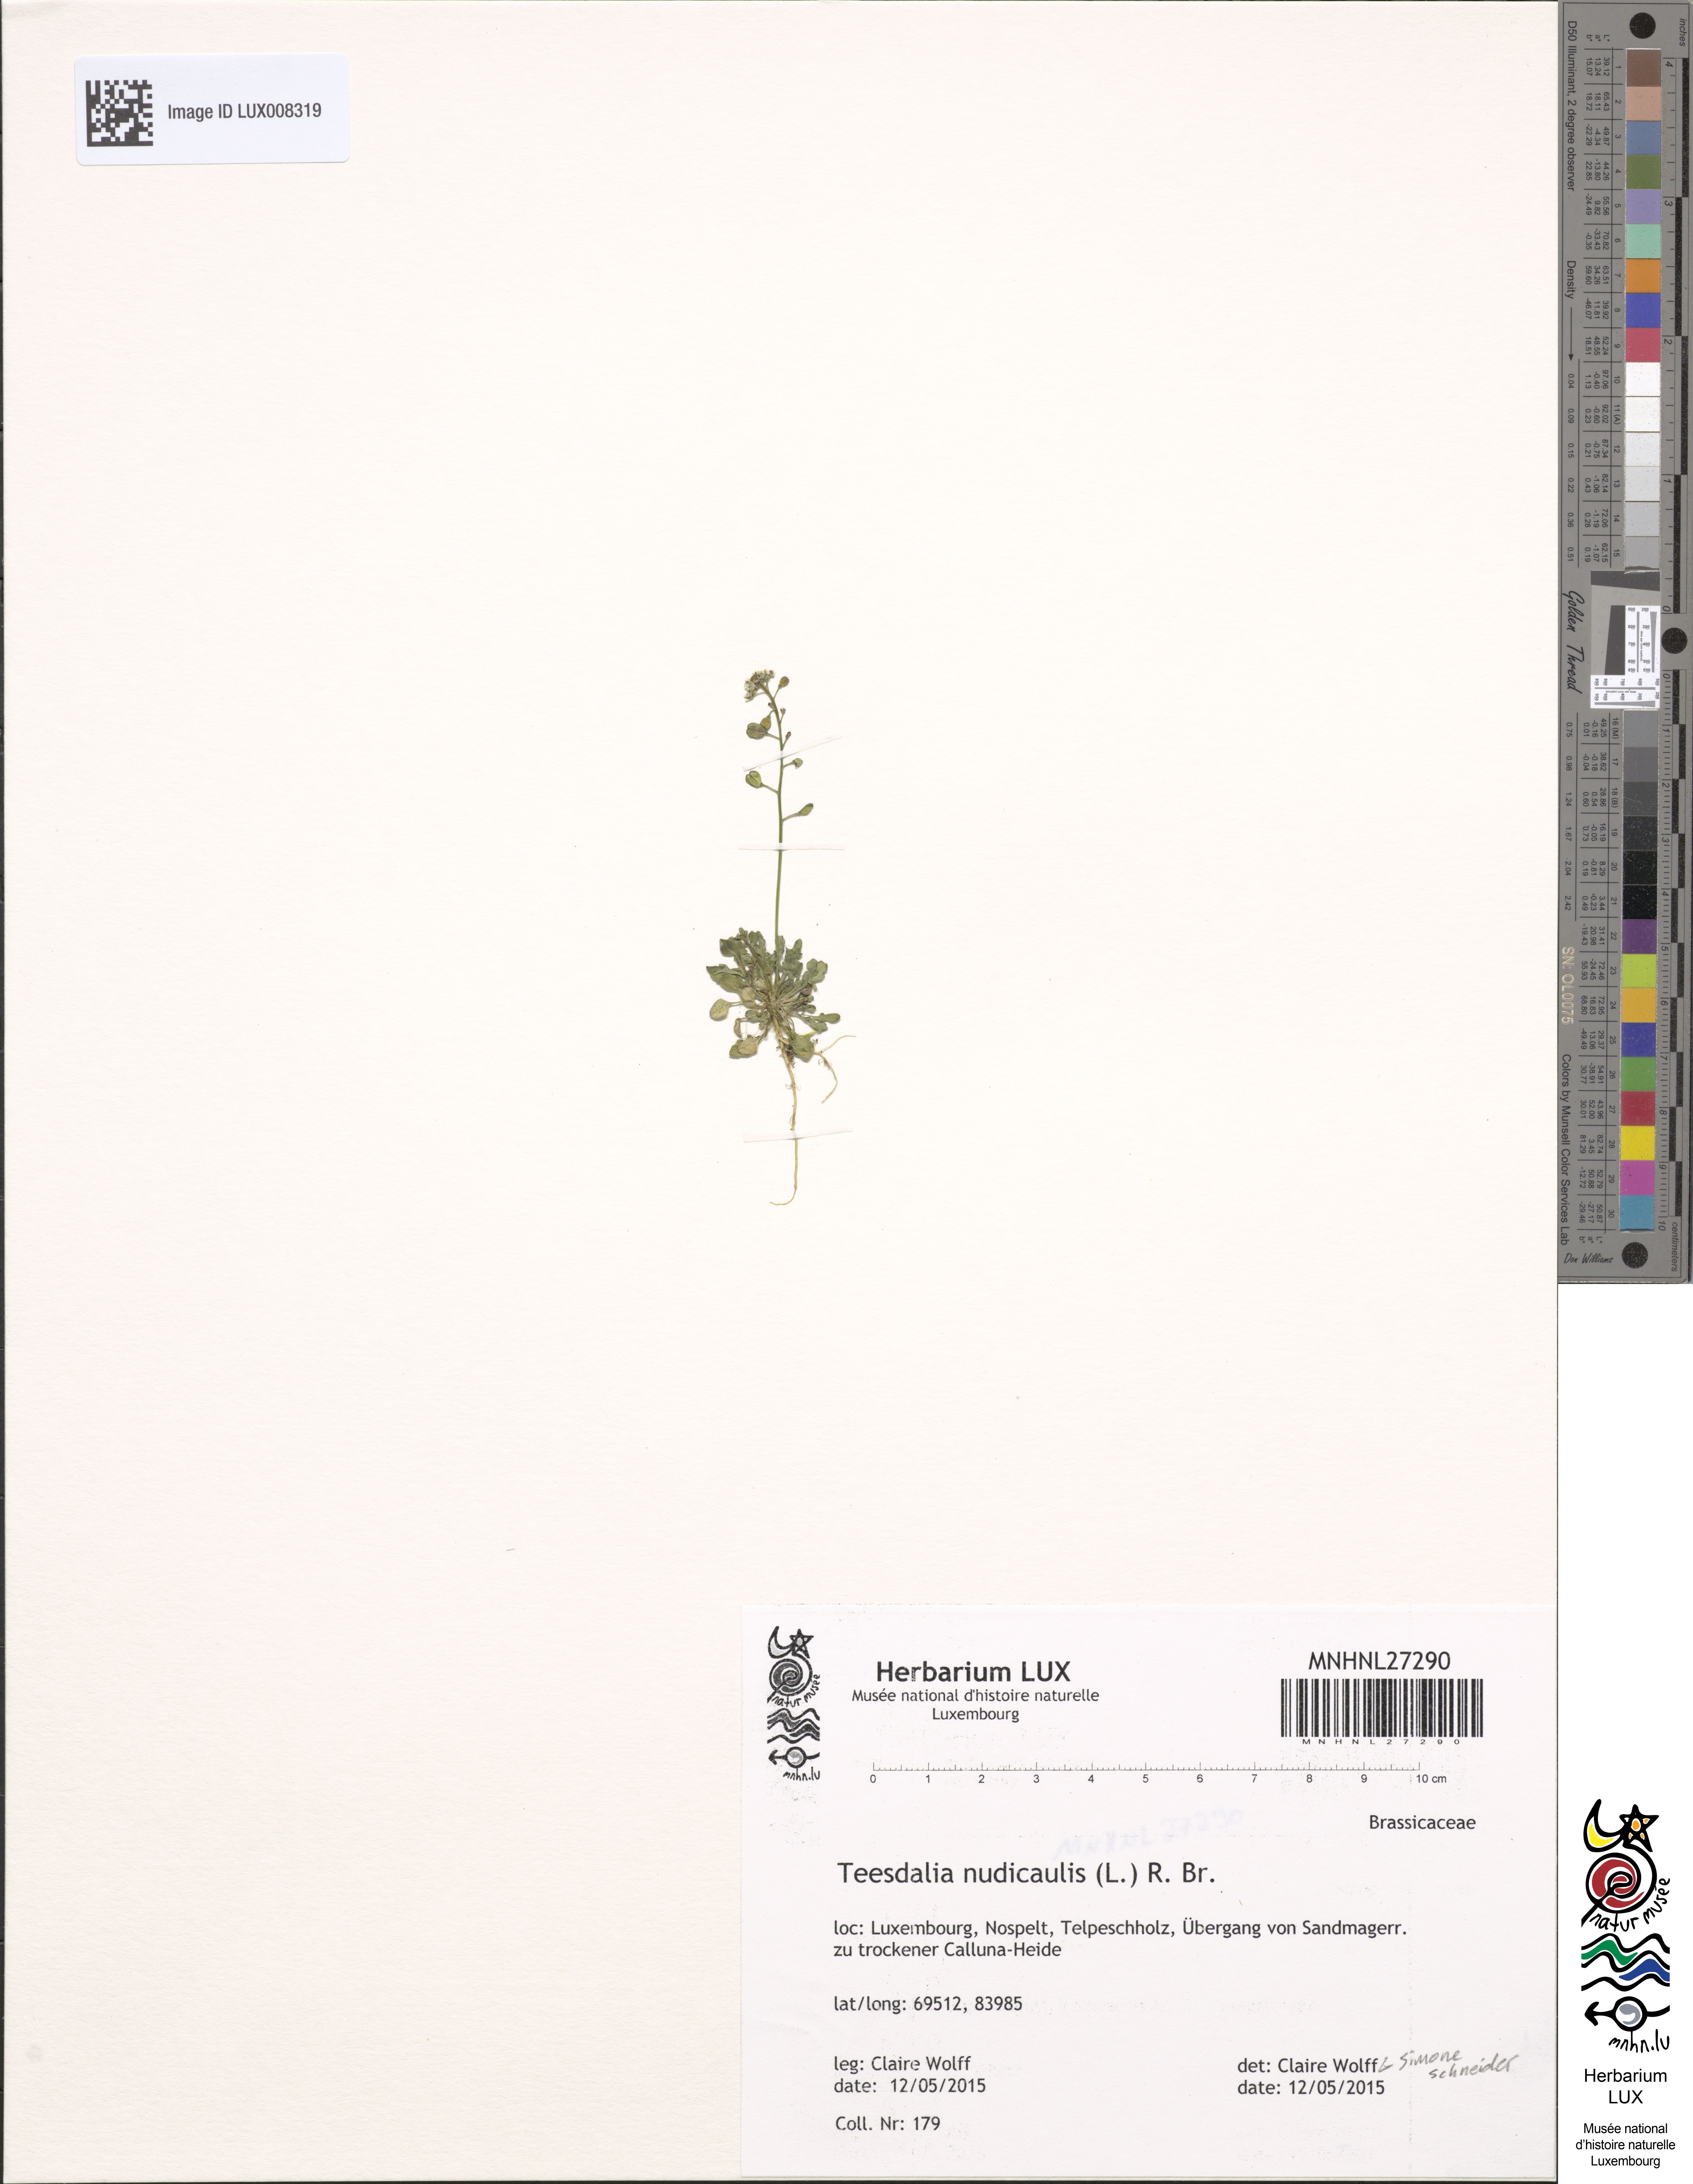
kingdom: Plantae
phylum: Tracheophyta
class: Magnoliopsida
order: Brassicales
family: Brassicaceae
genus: Teesdalia
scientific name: Teesdalia nudicaulis
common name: Shepherd's cress
